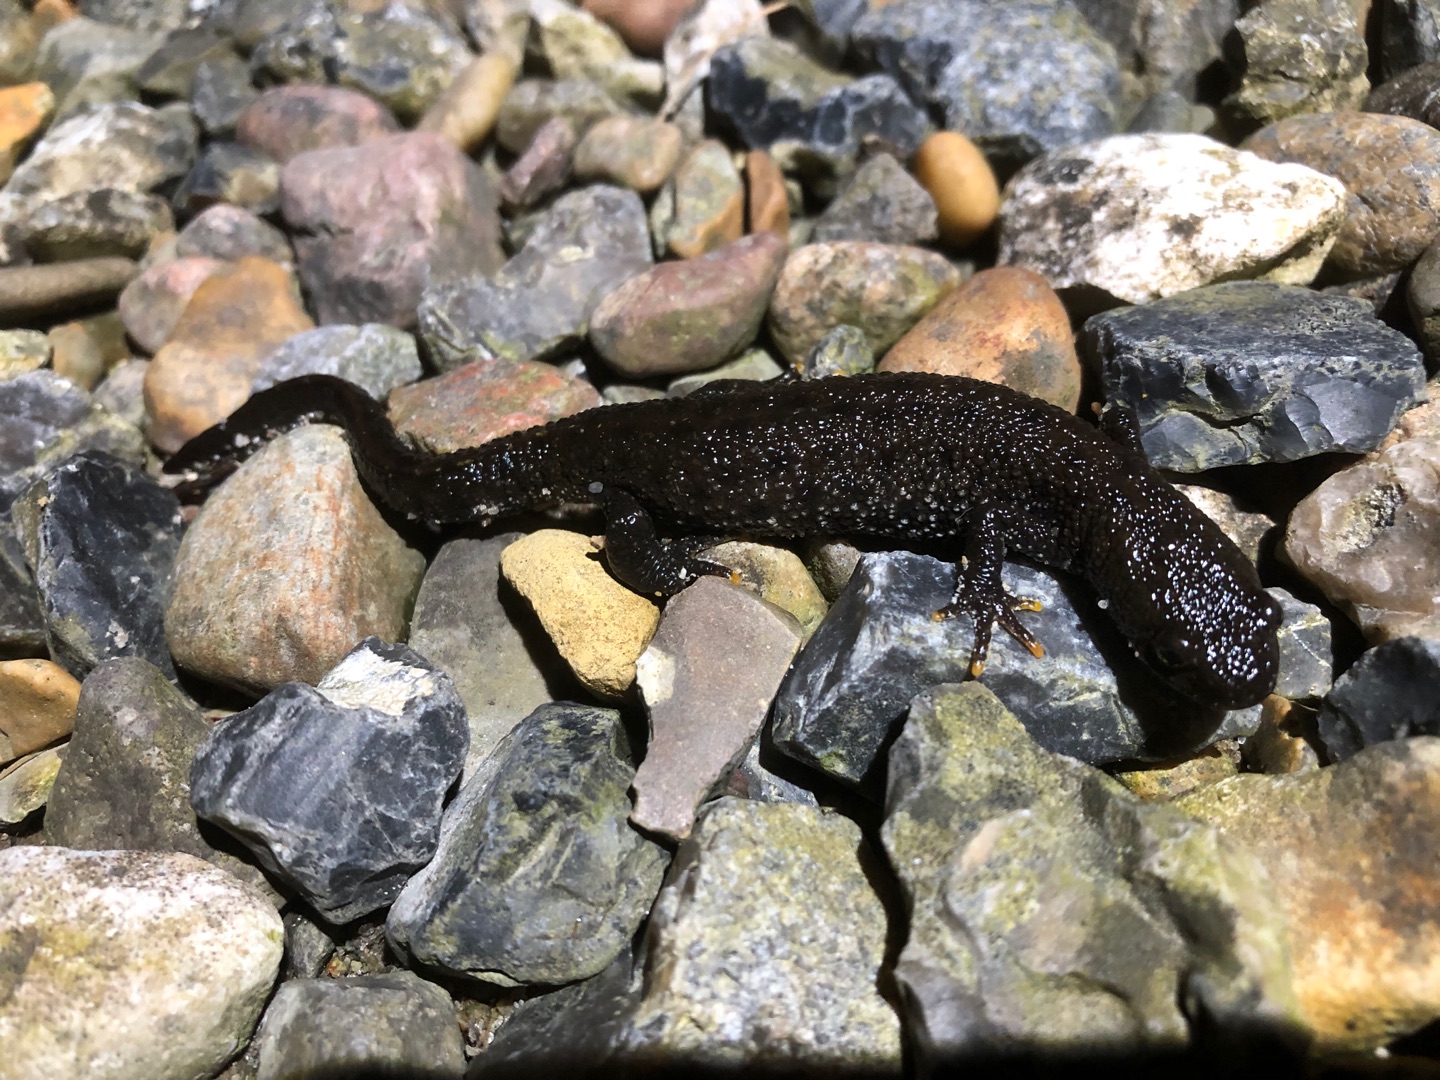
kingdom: Animalia
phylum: Chordata
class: Amphibia
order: Caudata
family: Salamandridae
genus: Triturus
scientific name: Triturus cristatus
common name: Stor vandsalamander
